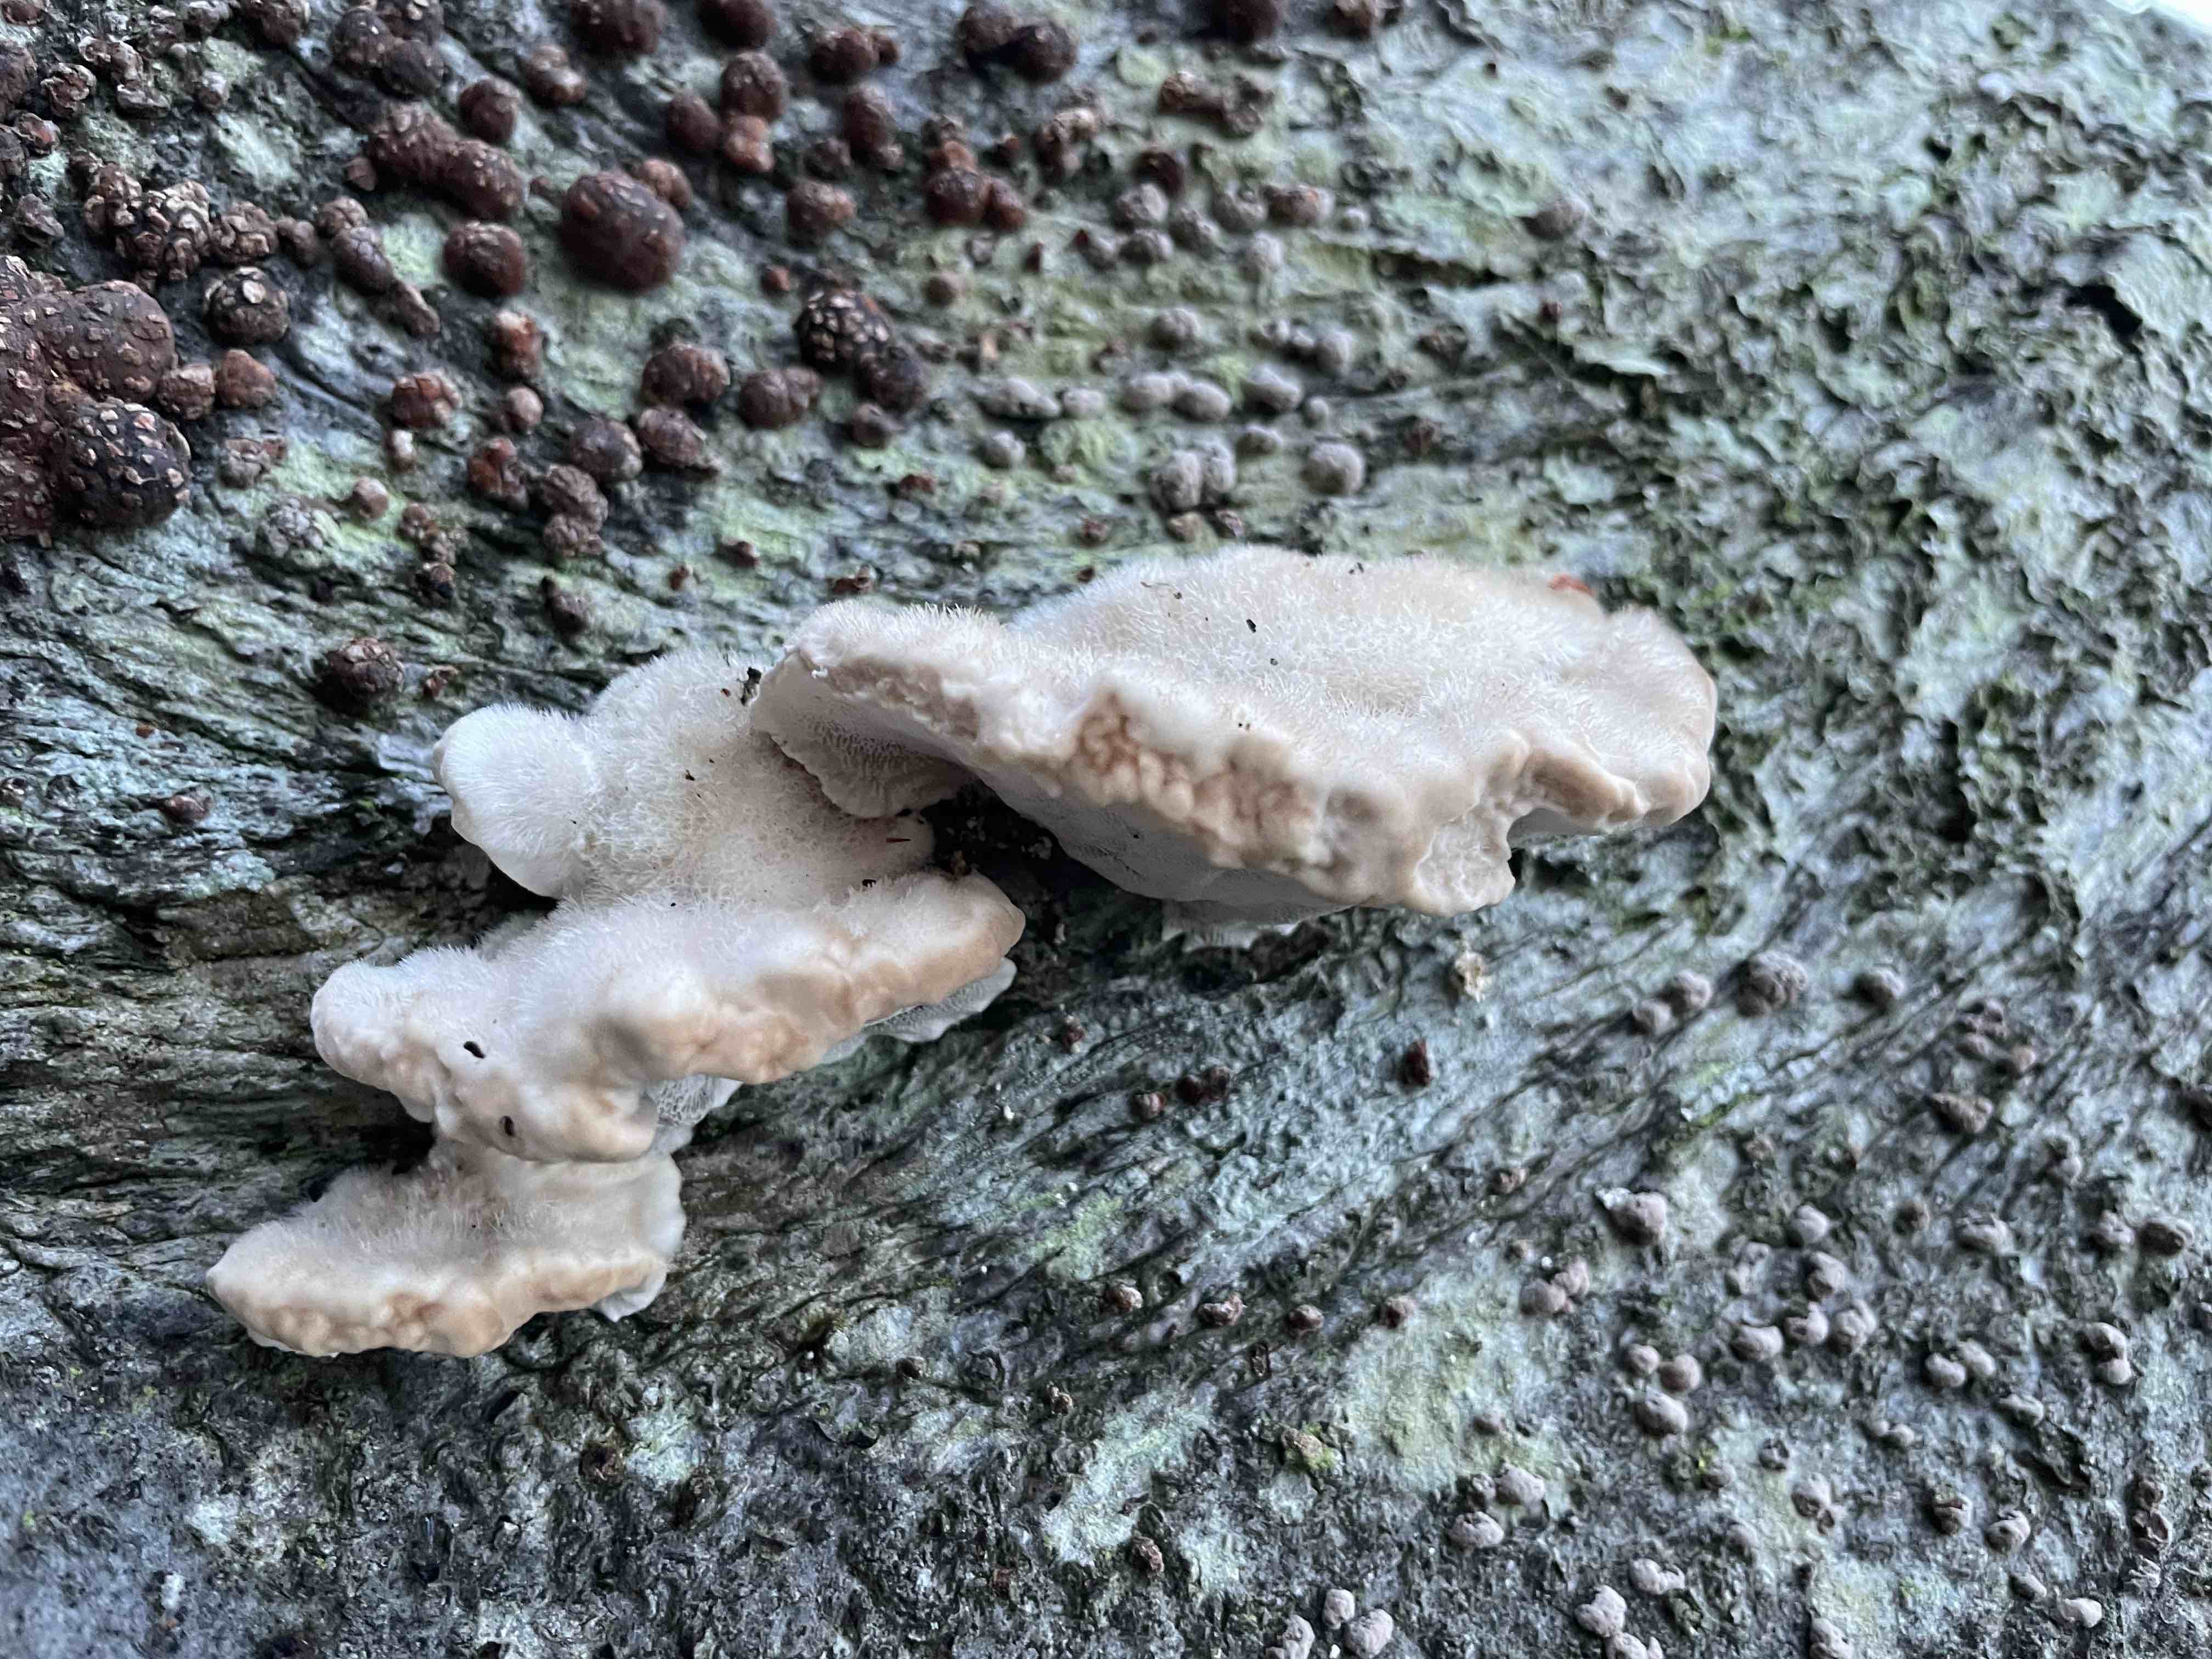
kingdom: Fungi
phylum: Basidiomycota
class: Agaricomycetes
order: Polyporales
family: Polyporaceae
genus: Trametes
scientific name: Trametes hirsuta
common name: håret læderporesvamp
